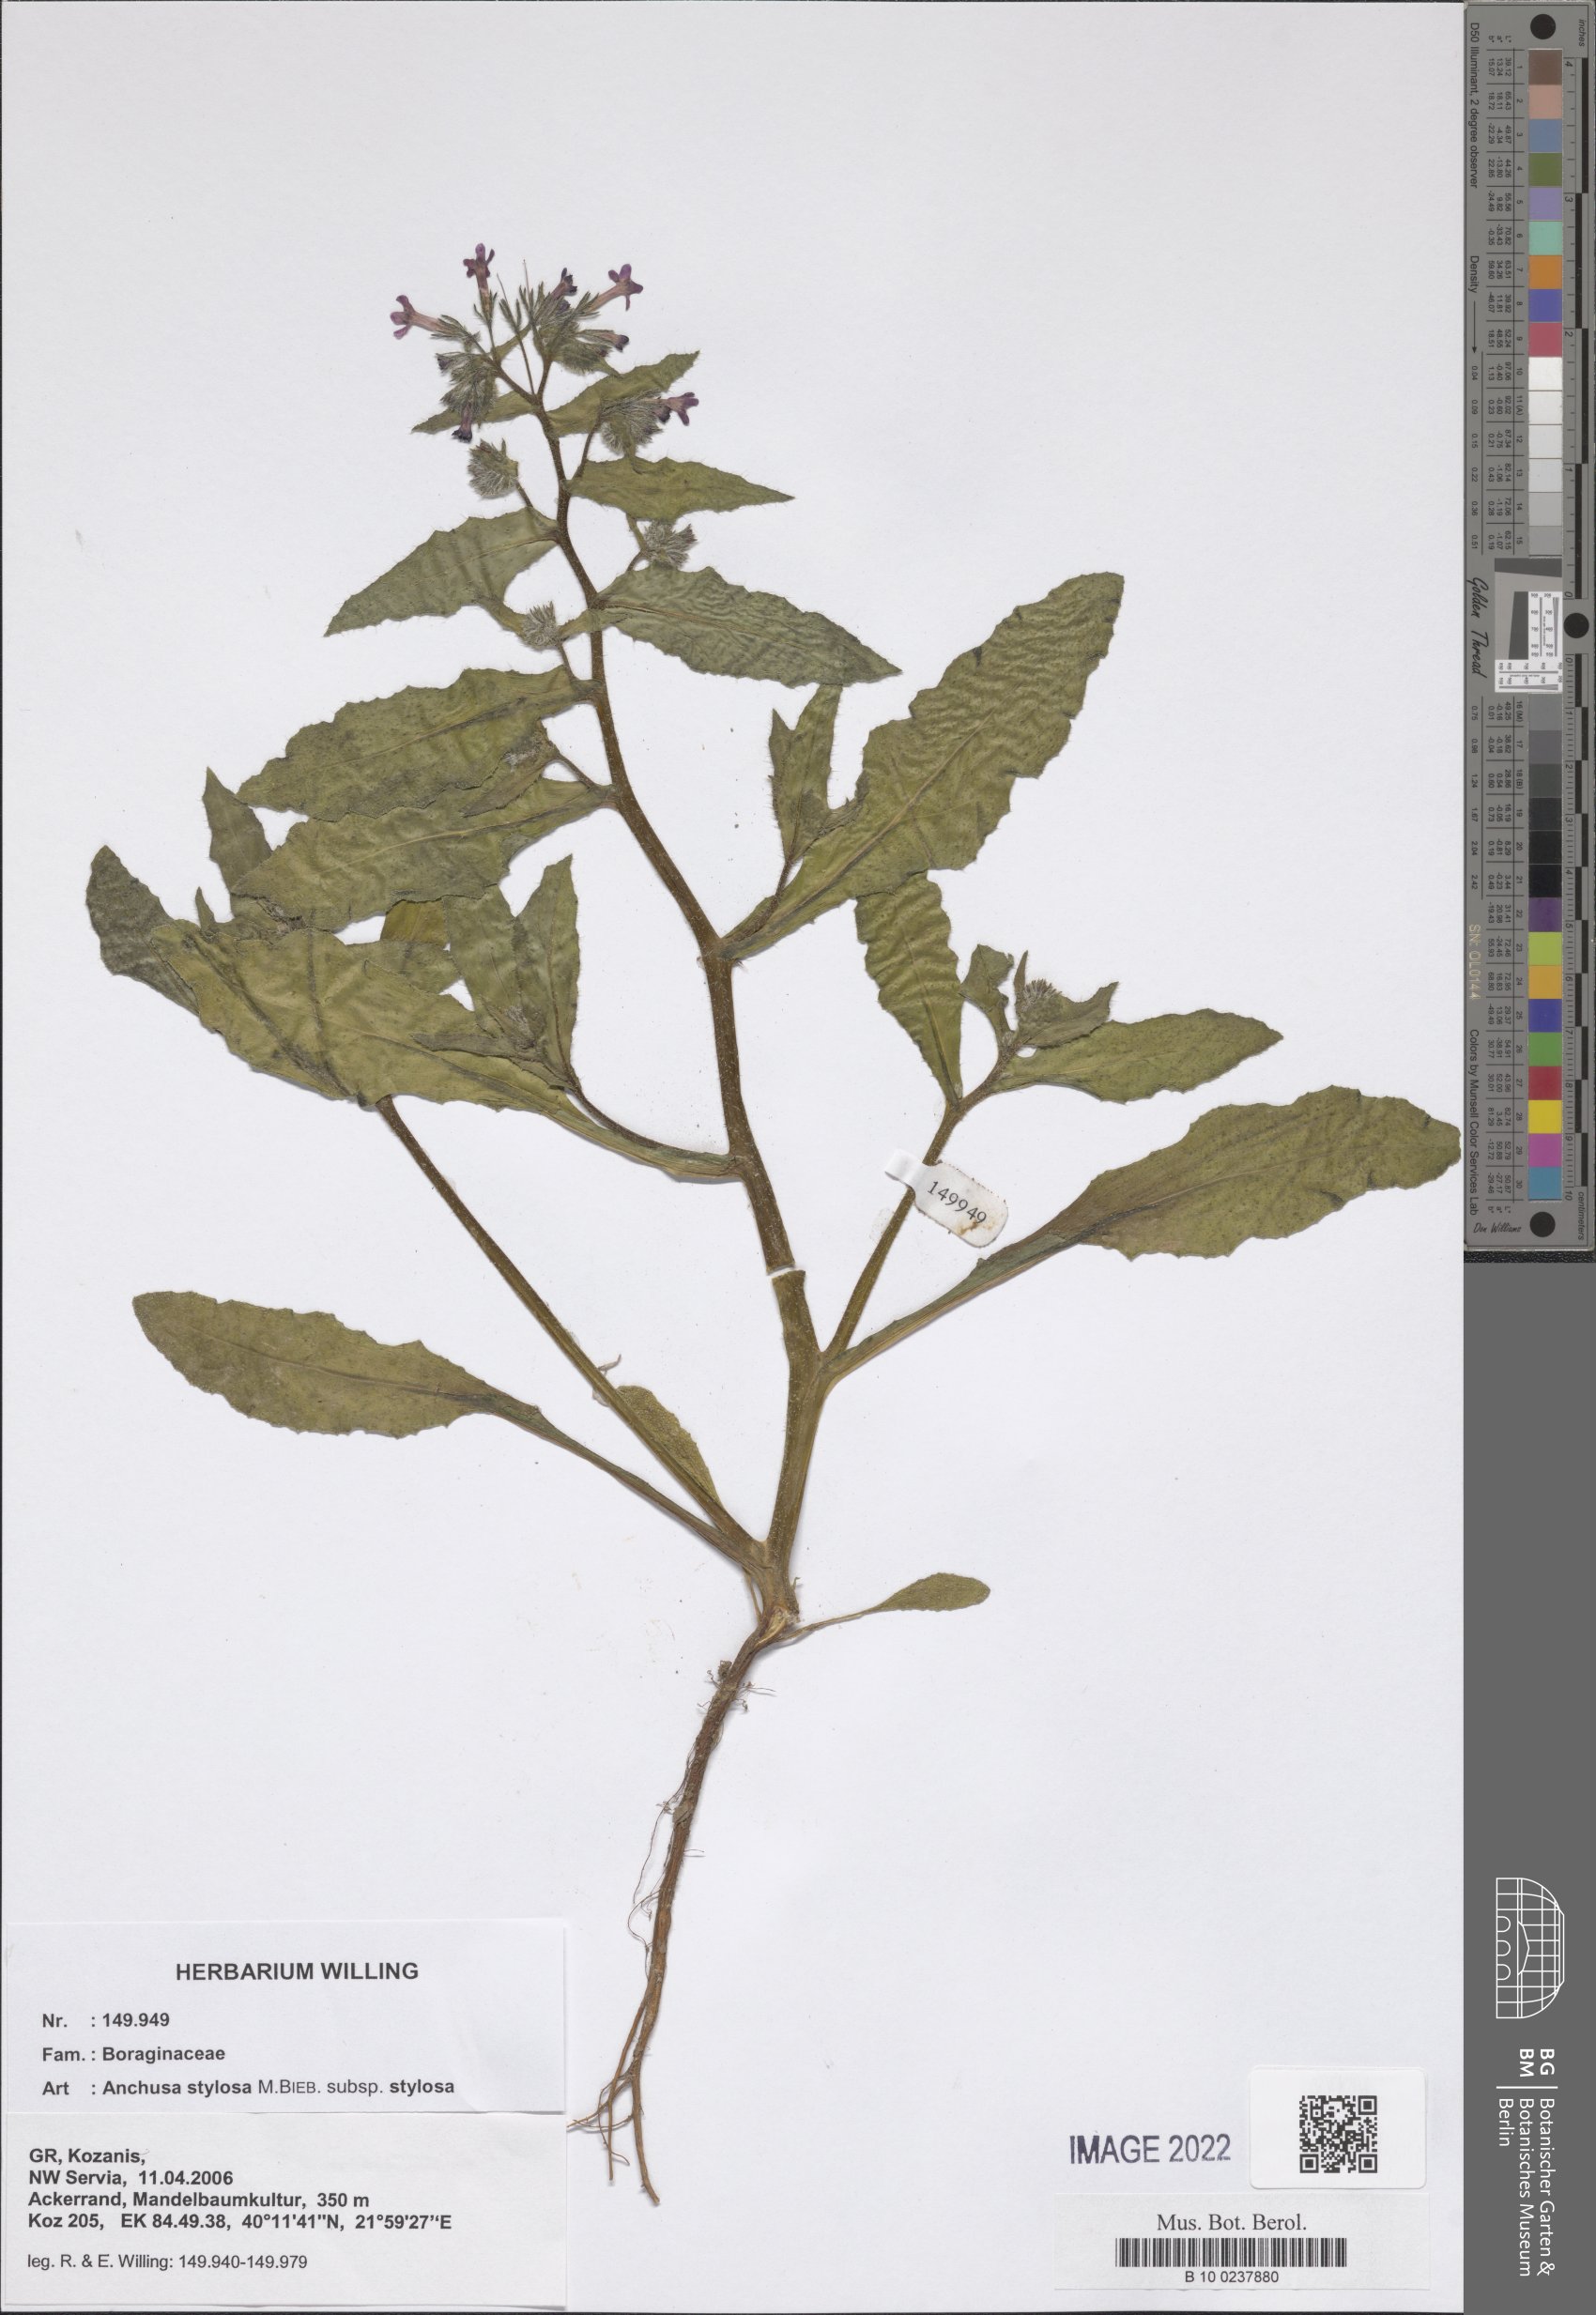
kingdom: Plantae
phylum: Tracheophyta
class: Magnoliopsida
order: Boraginales
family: Boraginaceae
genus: Anchusa
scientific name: Anchusa stylosa
